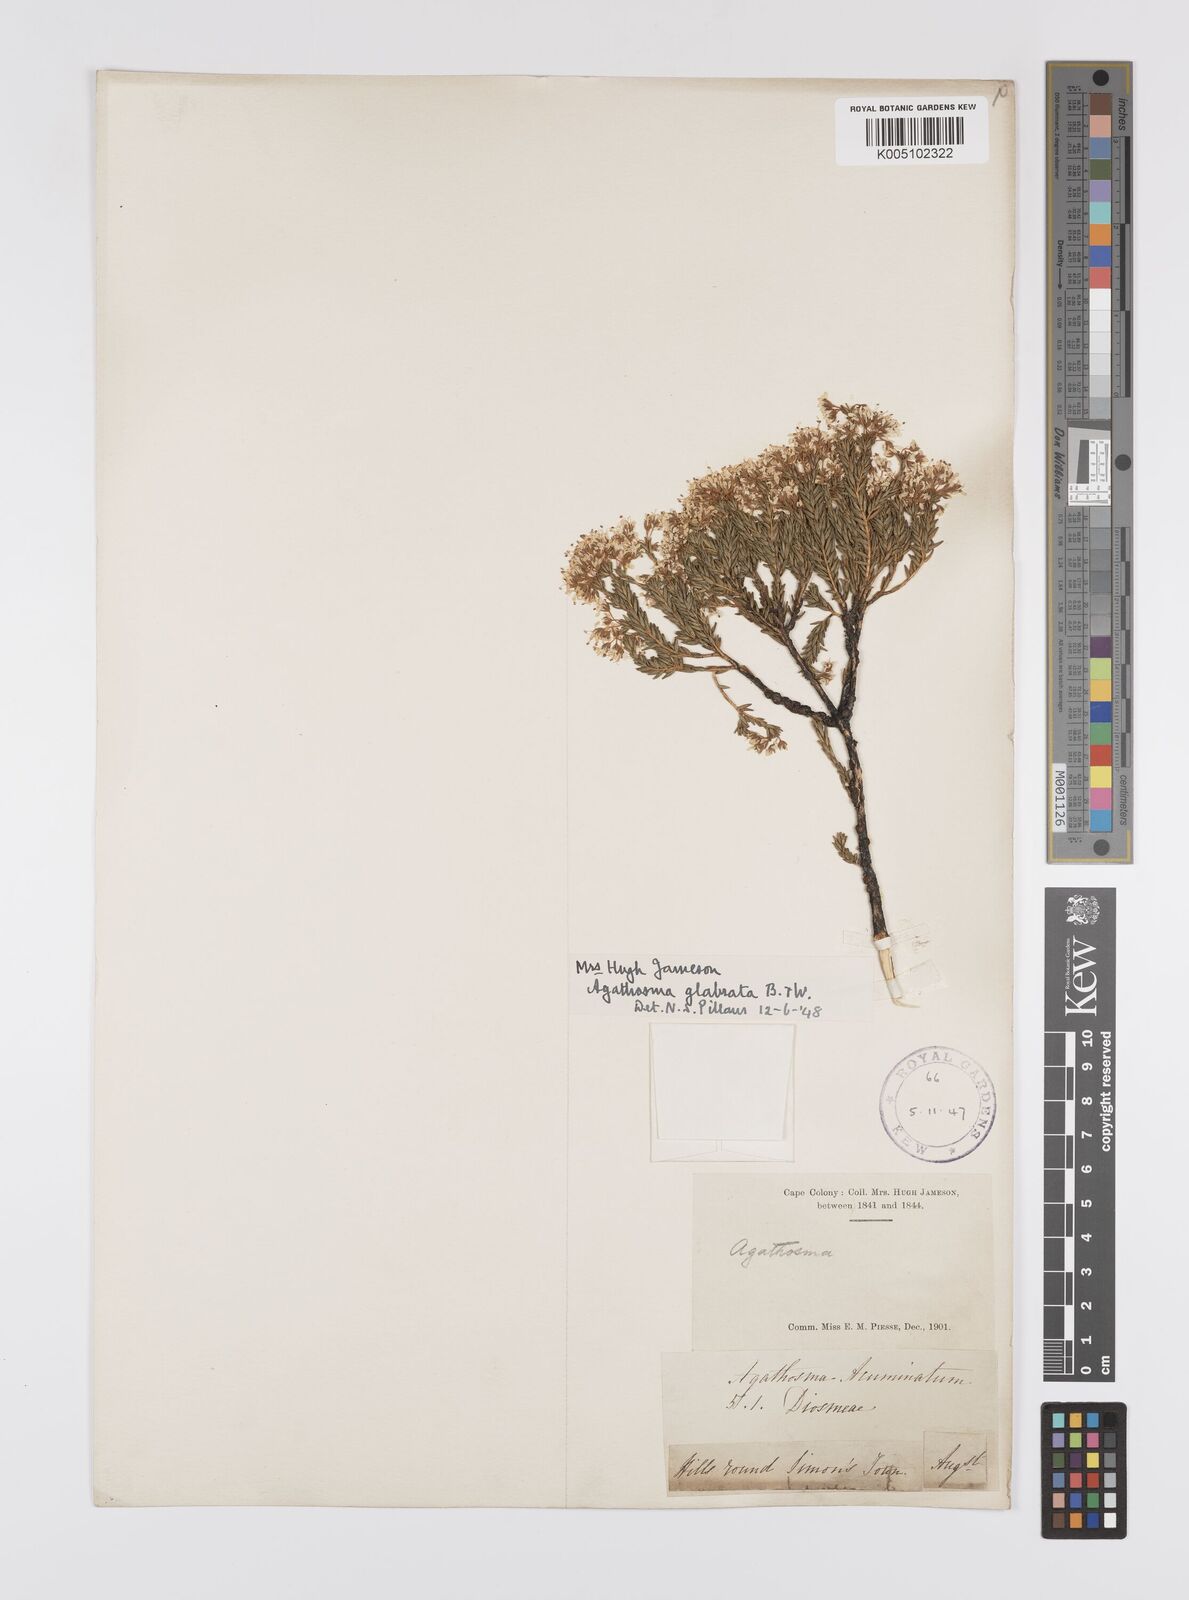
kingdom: Plantae
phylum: Tracheophyta
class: Magnoliopsida
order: Sapindales
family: Rutaceae
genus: Agathosma
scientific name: Agathosma
